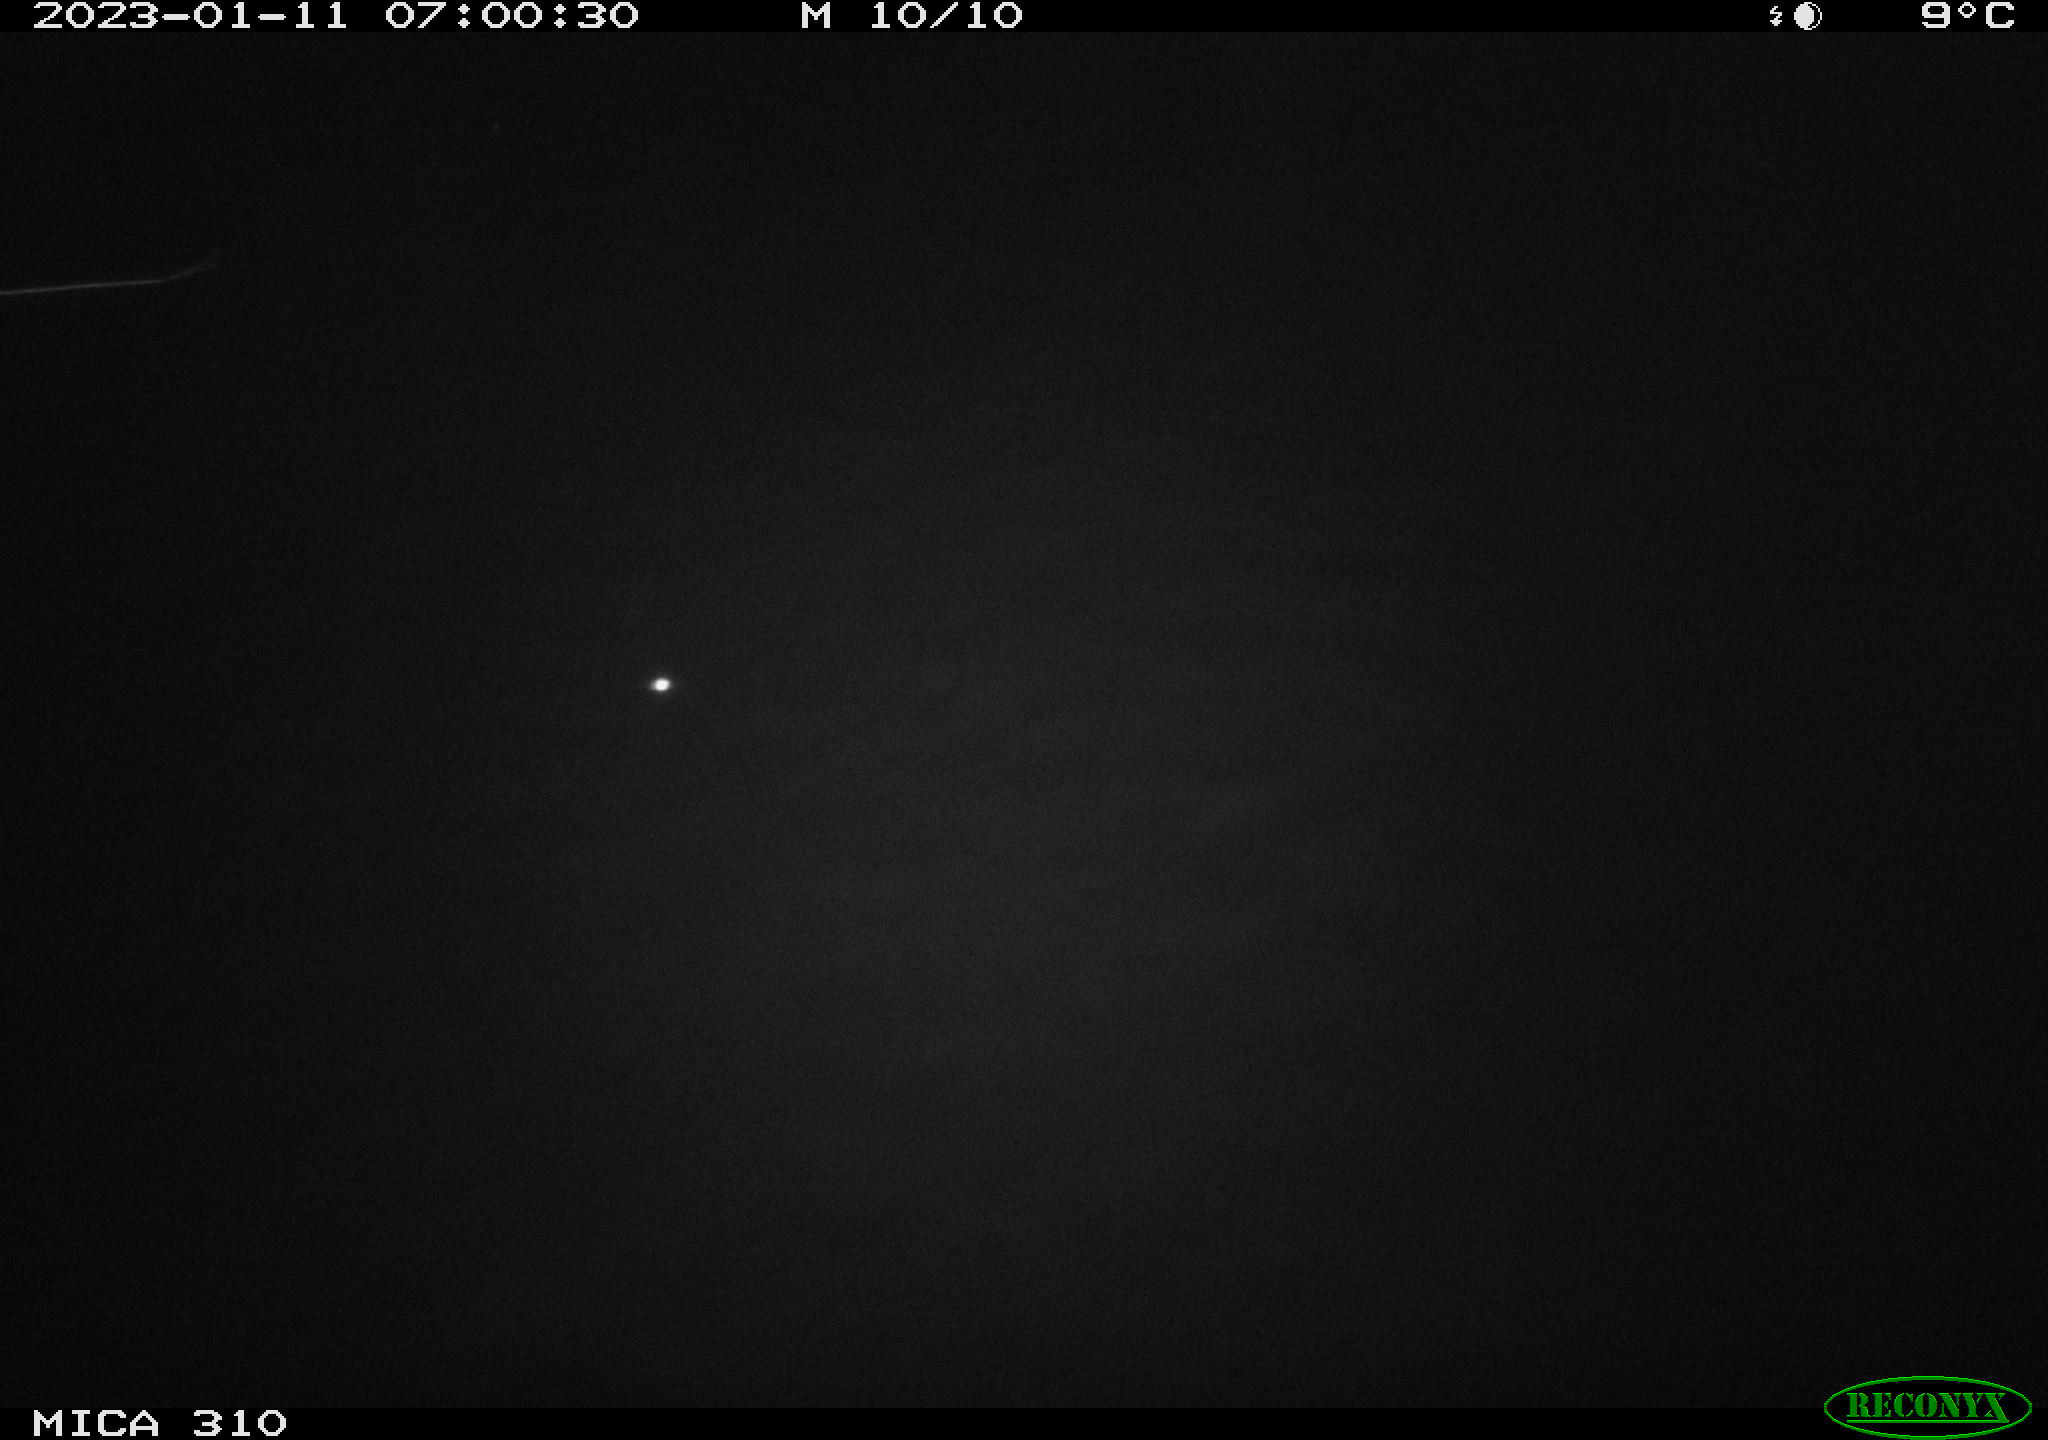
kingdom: Animalia
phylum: Chordata
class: Mammalia
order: Rodentia
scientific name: Rodentia
